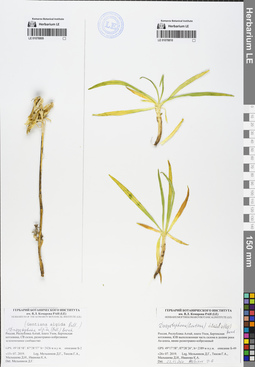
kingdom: Plantae
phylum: Tracheophyta
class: Magnoliopsida
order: Gentianales
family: Gentianaceae
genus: Gentiana
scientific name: Gentiana algida
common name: Arctic gentian
